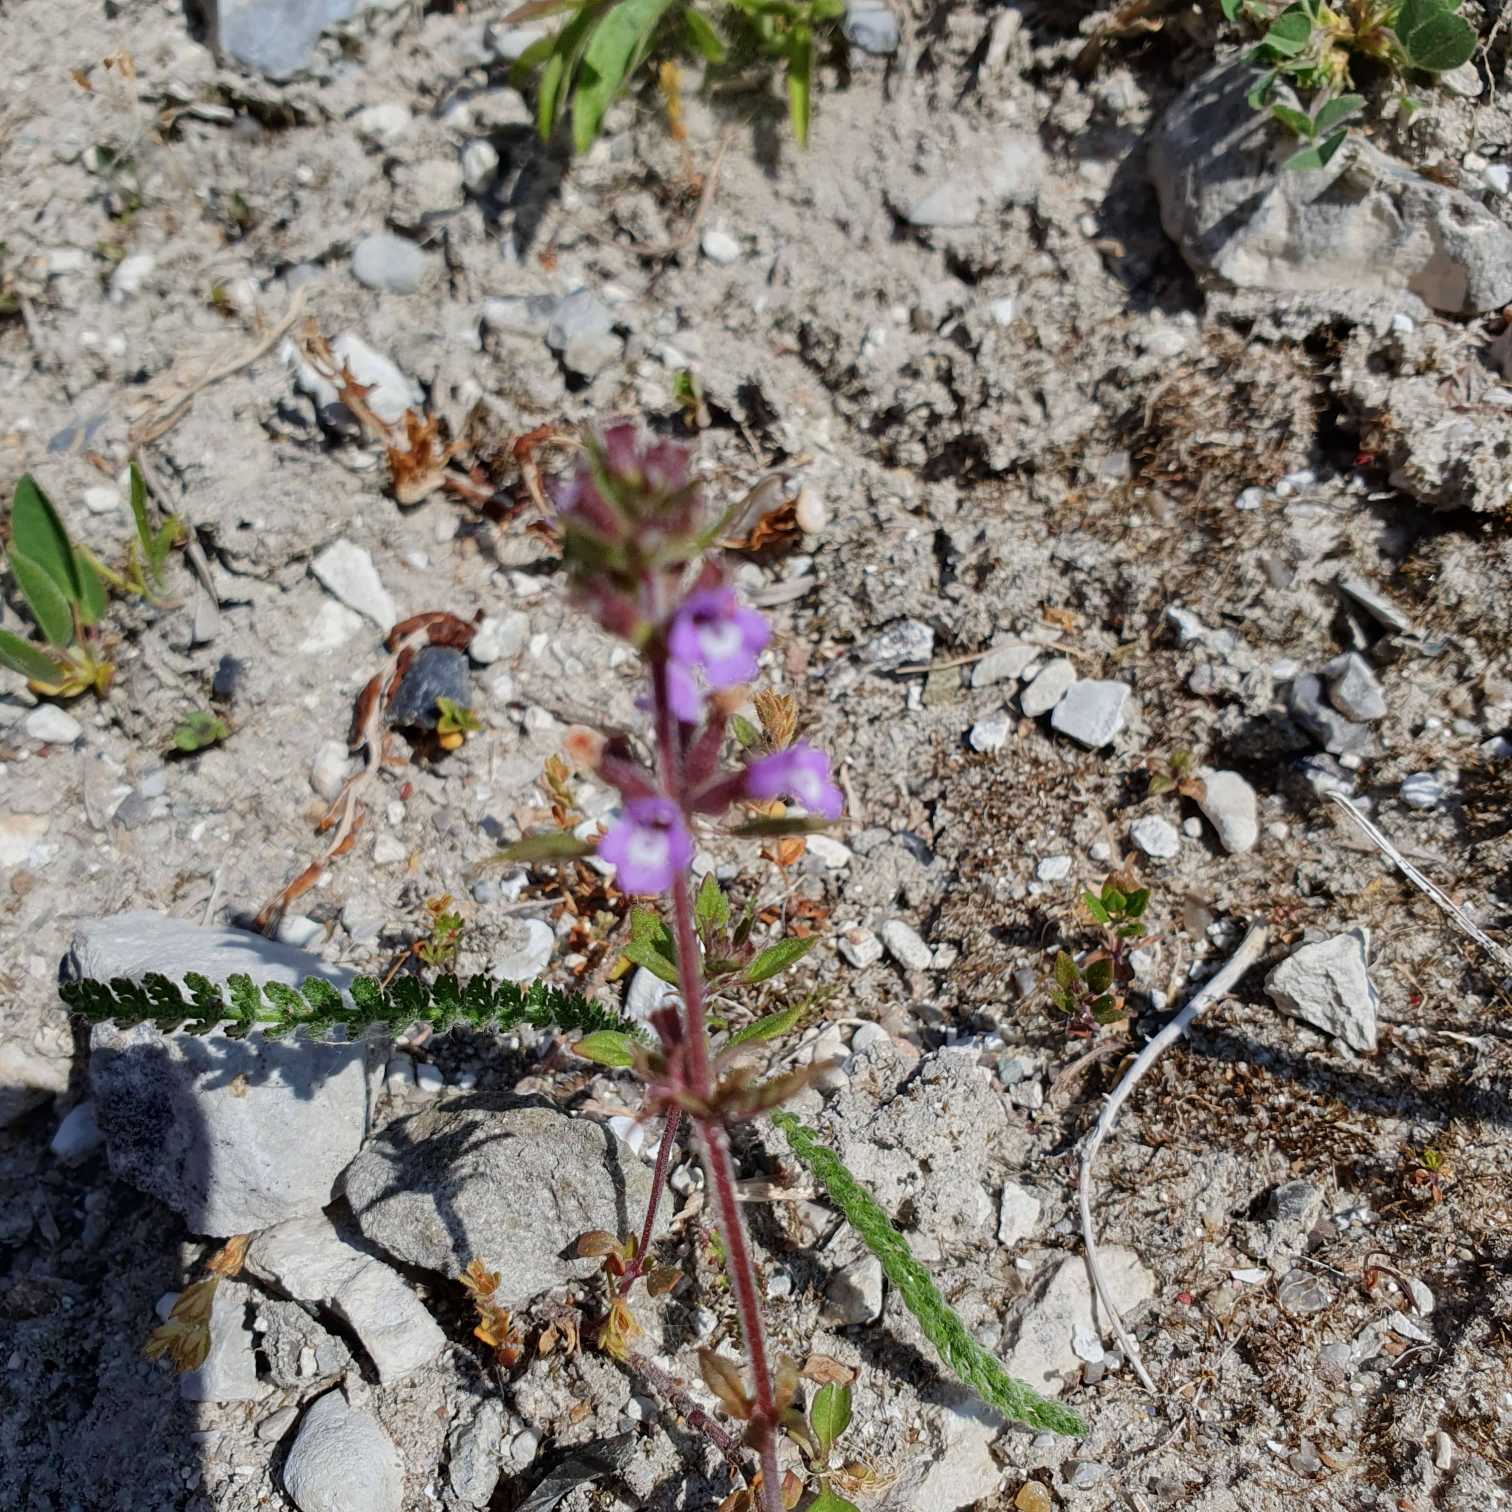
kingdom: Plantae
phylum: Tracheophyta
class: Magnoliopsida
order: Lamiales
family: Lamiaceae
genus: Clinopodium
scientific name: Clinopodium acinos
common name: Voldtimian
